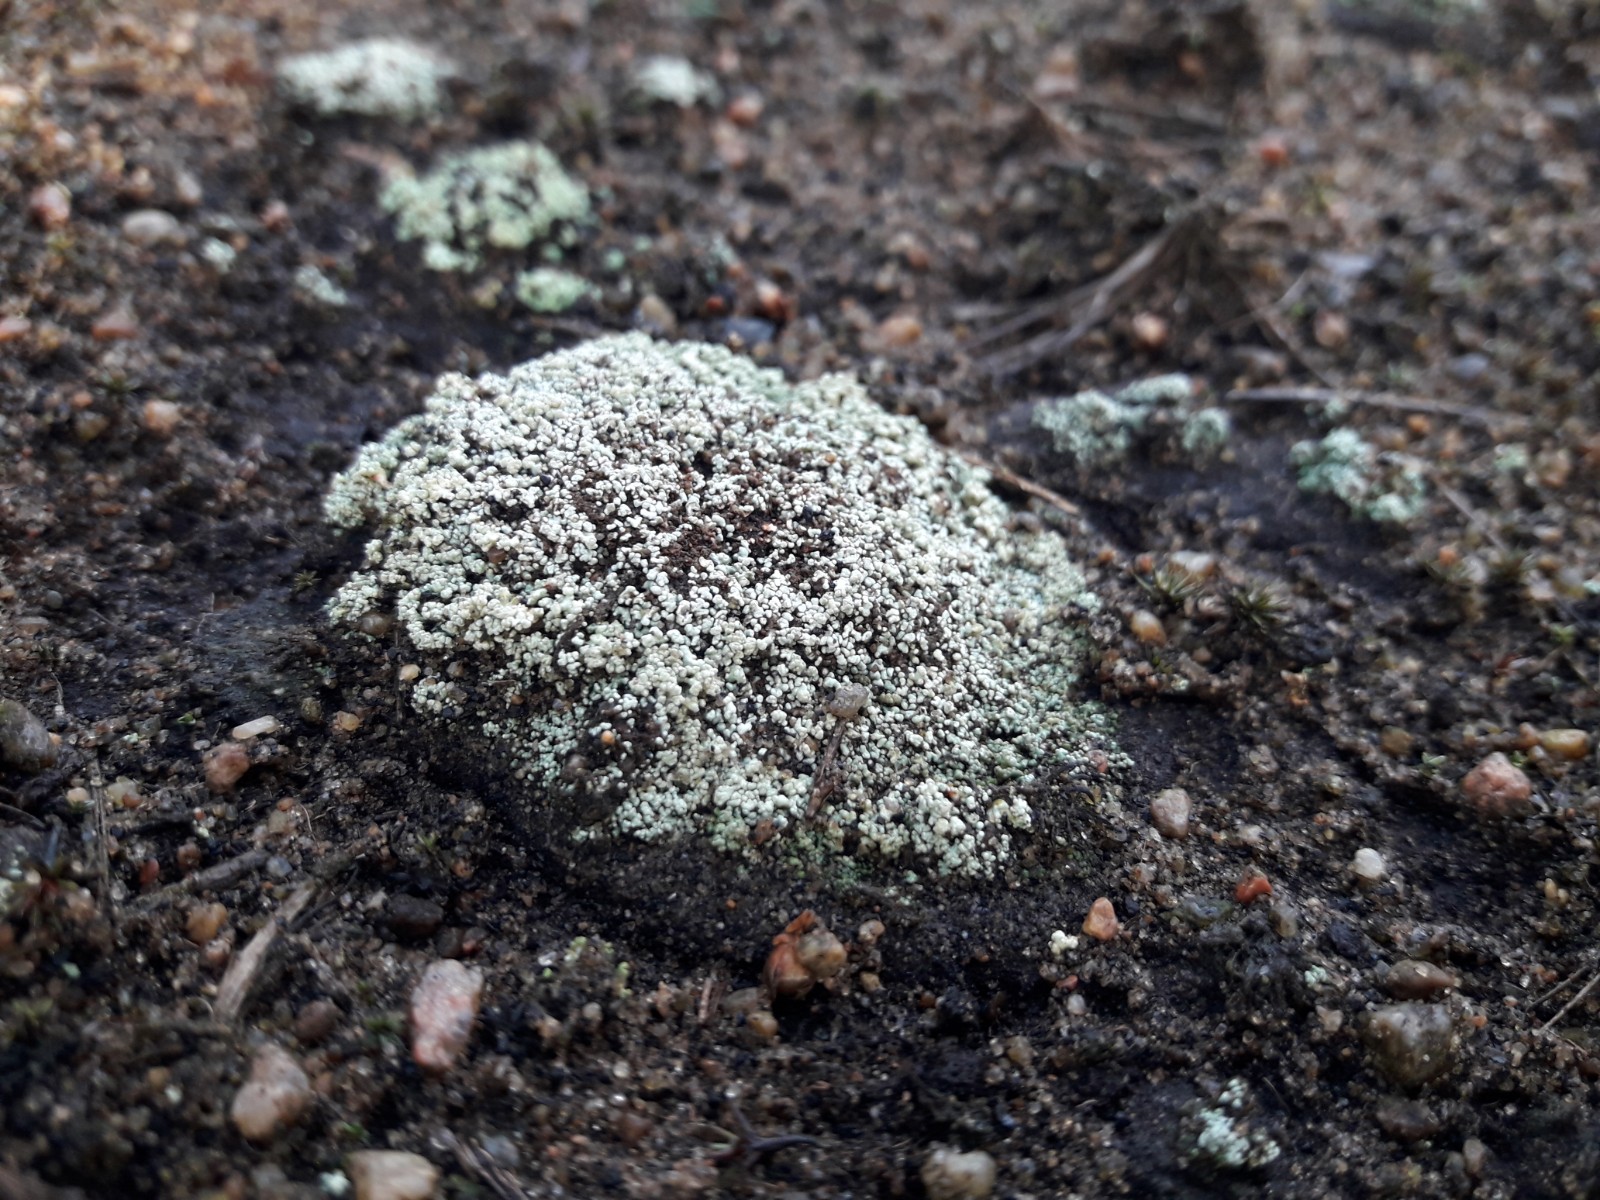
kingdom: Fungi
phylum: Ascomycota
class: Lecanoromycetes
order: Lecanorales
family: Stereocaulaceae
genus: Stereocaulon
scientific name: Stereocaulon condensatum
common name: lav korallav
